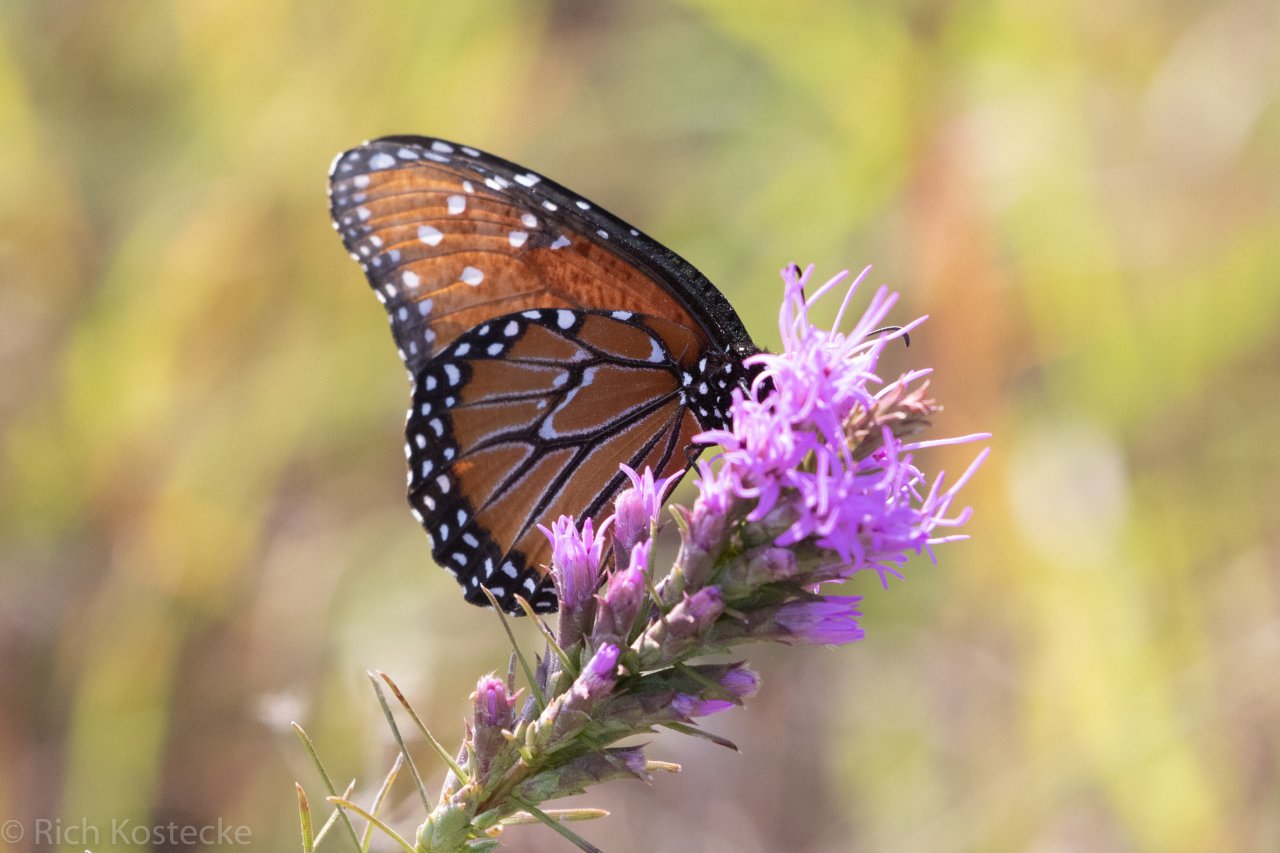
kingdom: Animalia
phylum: Arthropoda
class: Insecta
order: Lepidoptera
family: Nymphalidae
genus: Danaus
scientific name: Danaus gilippus
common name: Queen
